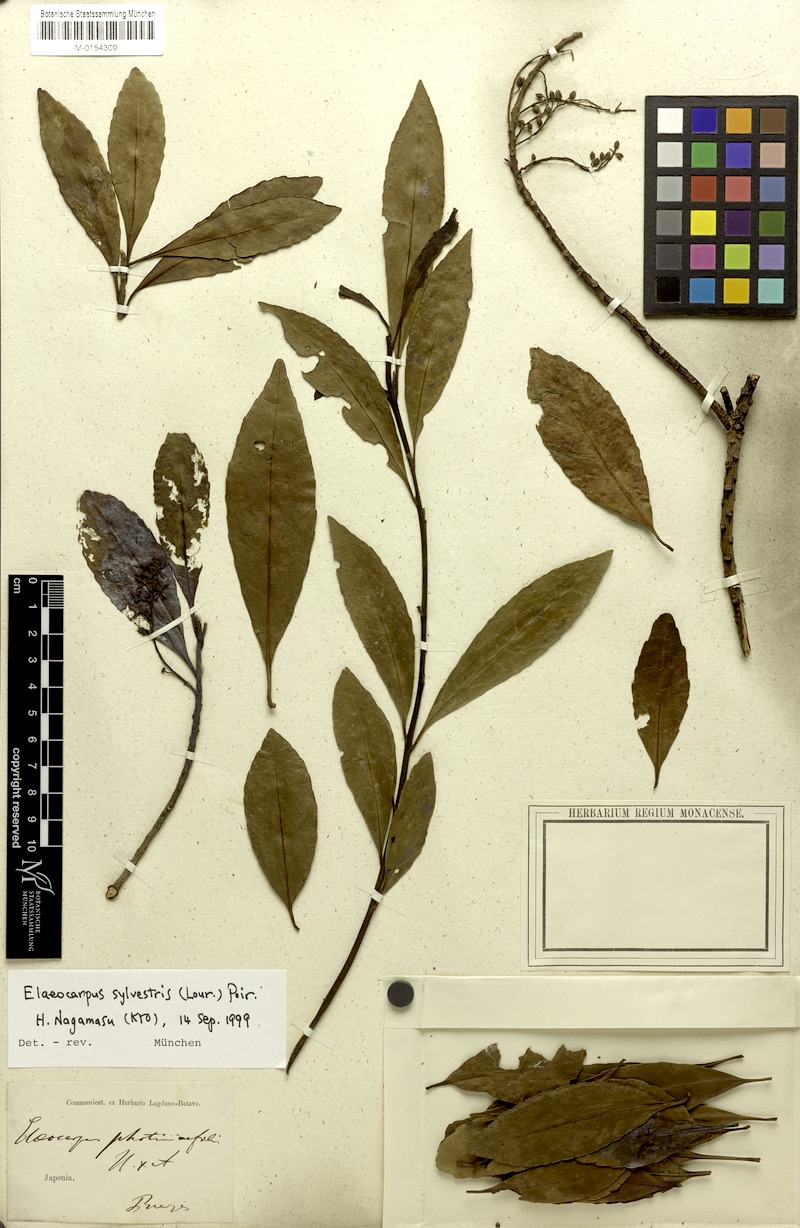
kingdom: Plantae
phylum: Tracheophyta
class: Magnoliopsida
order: Oxalidales
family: Elaeocarpaceae
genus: Elaeocarpus
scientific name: Elaeocarpus sylvestris
